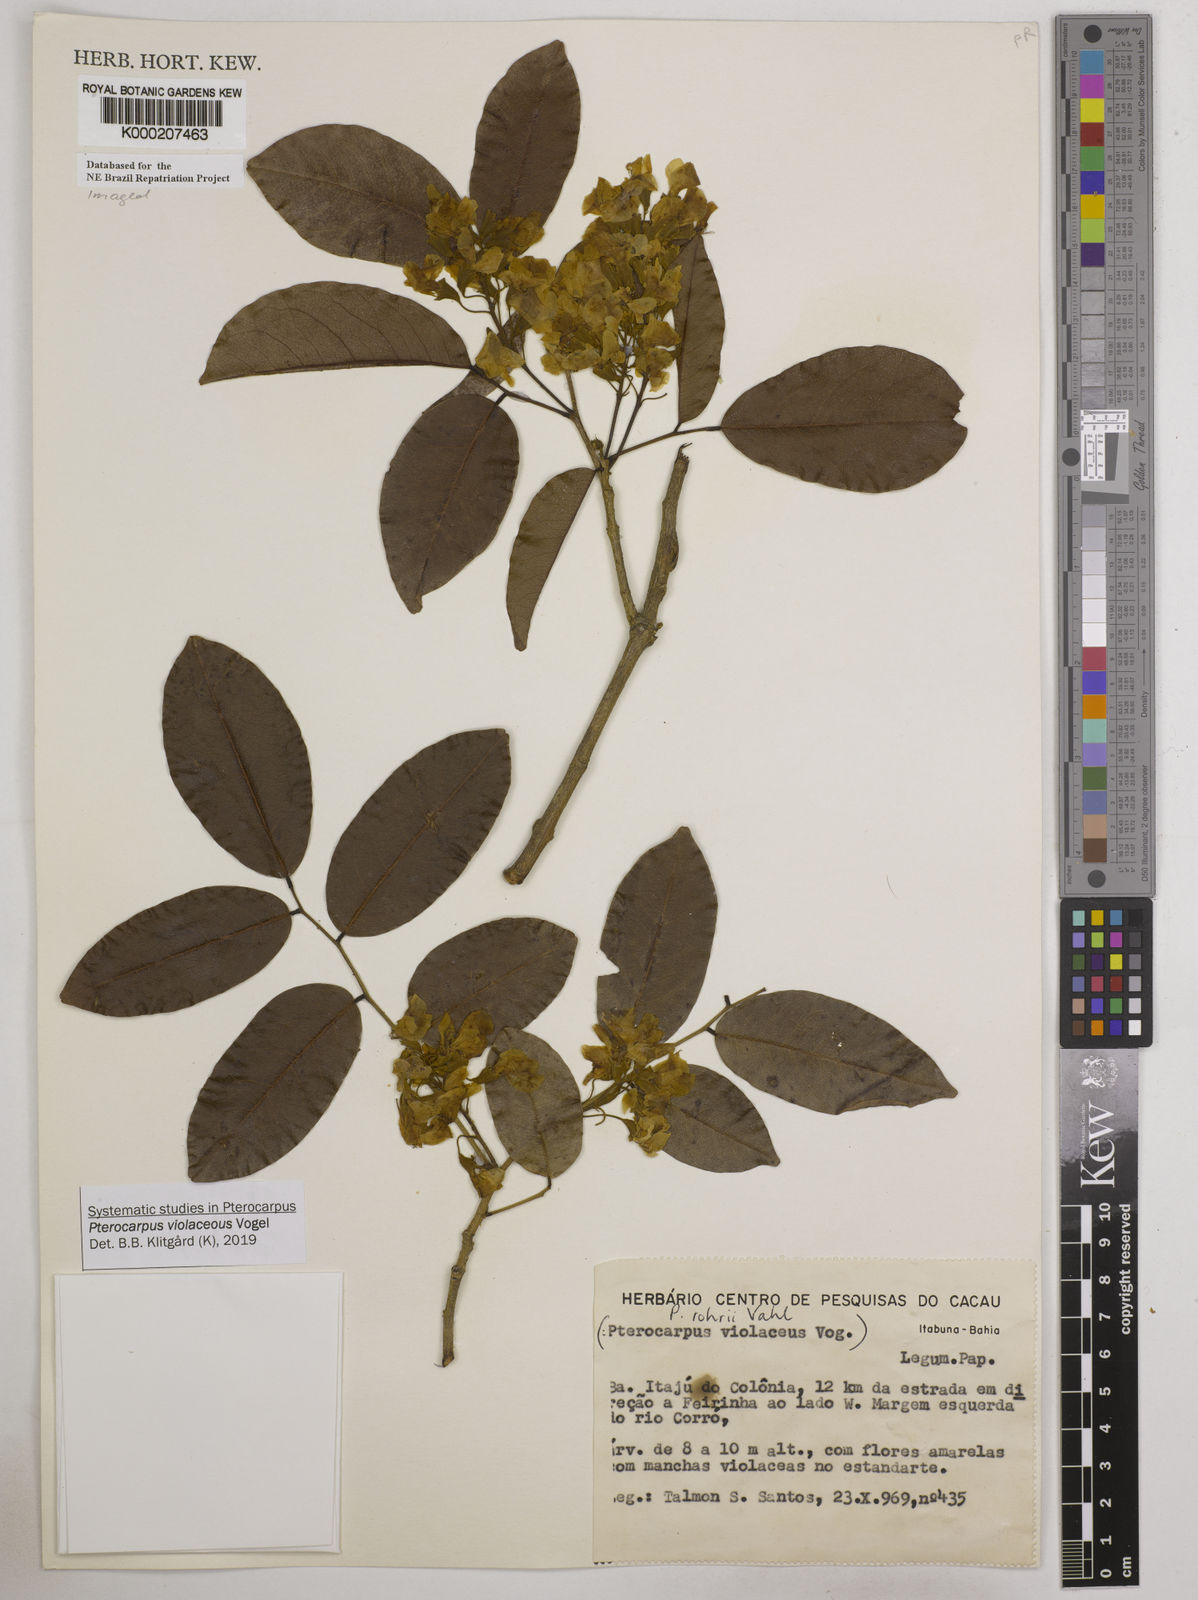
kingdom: Plantae
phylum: Tracheophyta
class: Magnoliopsida
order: Fabales
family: Fabaceae
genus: Pterocarpus
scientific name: Pterocarpus rohrii
